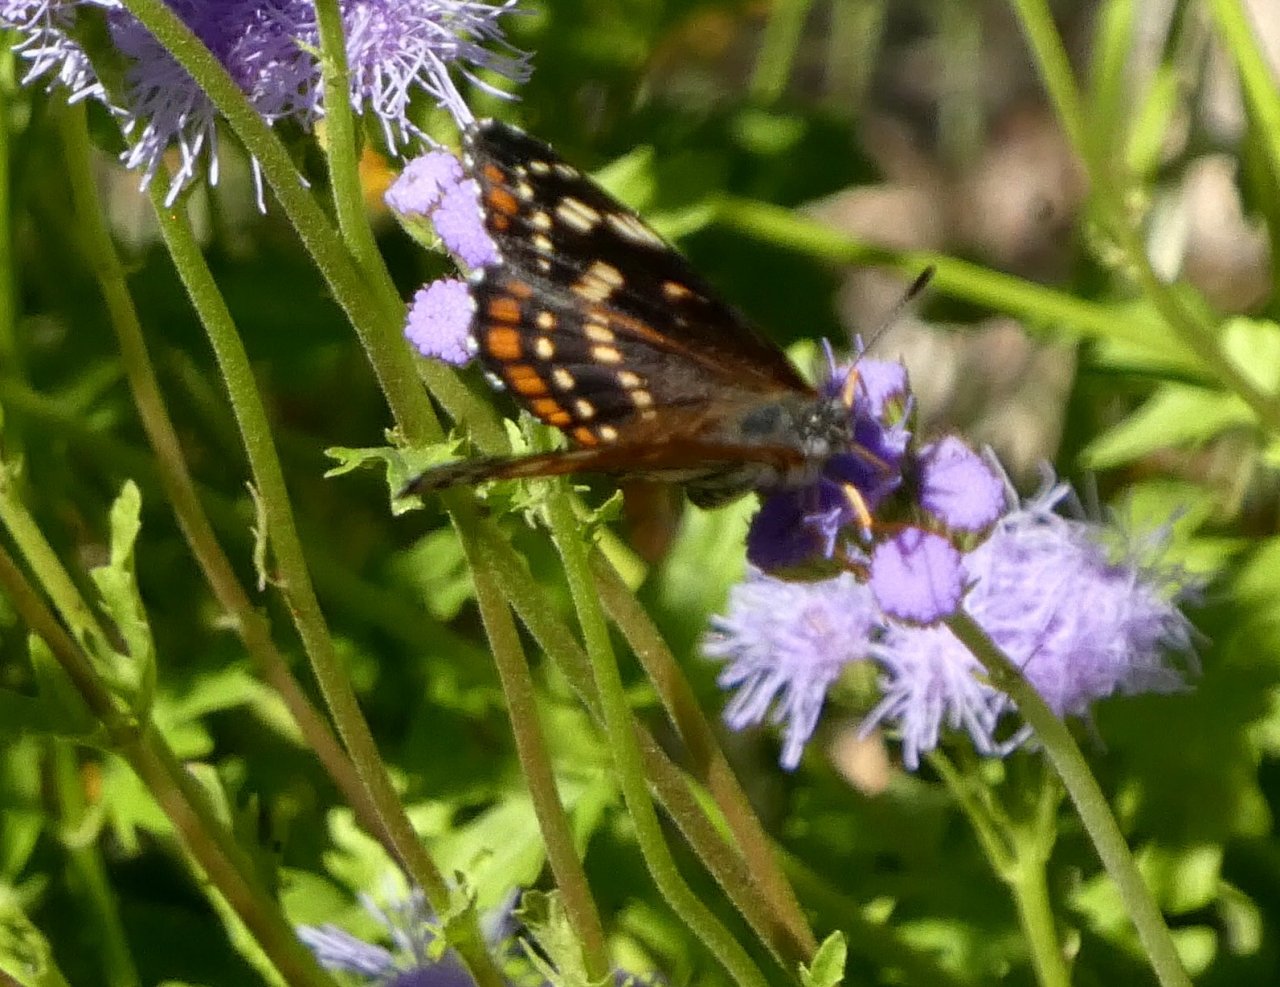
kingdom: Animalia
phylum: Arthropoda
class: Insecta
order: Lepidoptera
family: Nymphalidae
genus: Thessalia
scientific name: Thessalia leanira
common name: Black Checkerspot
